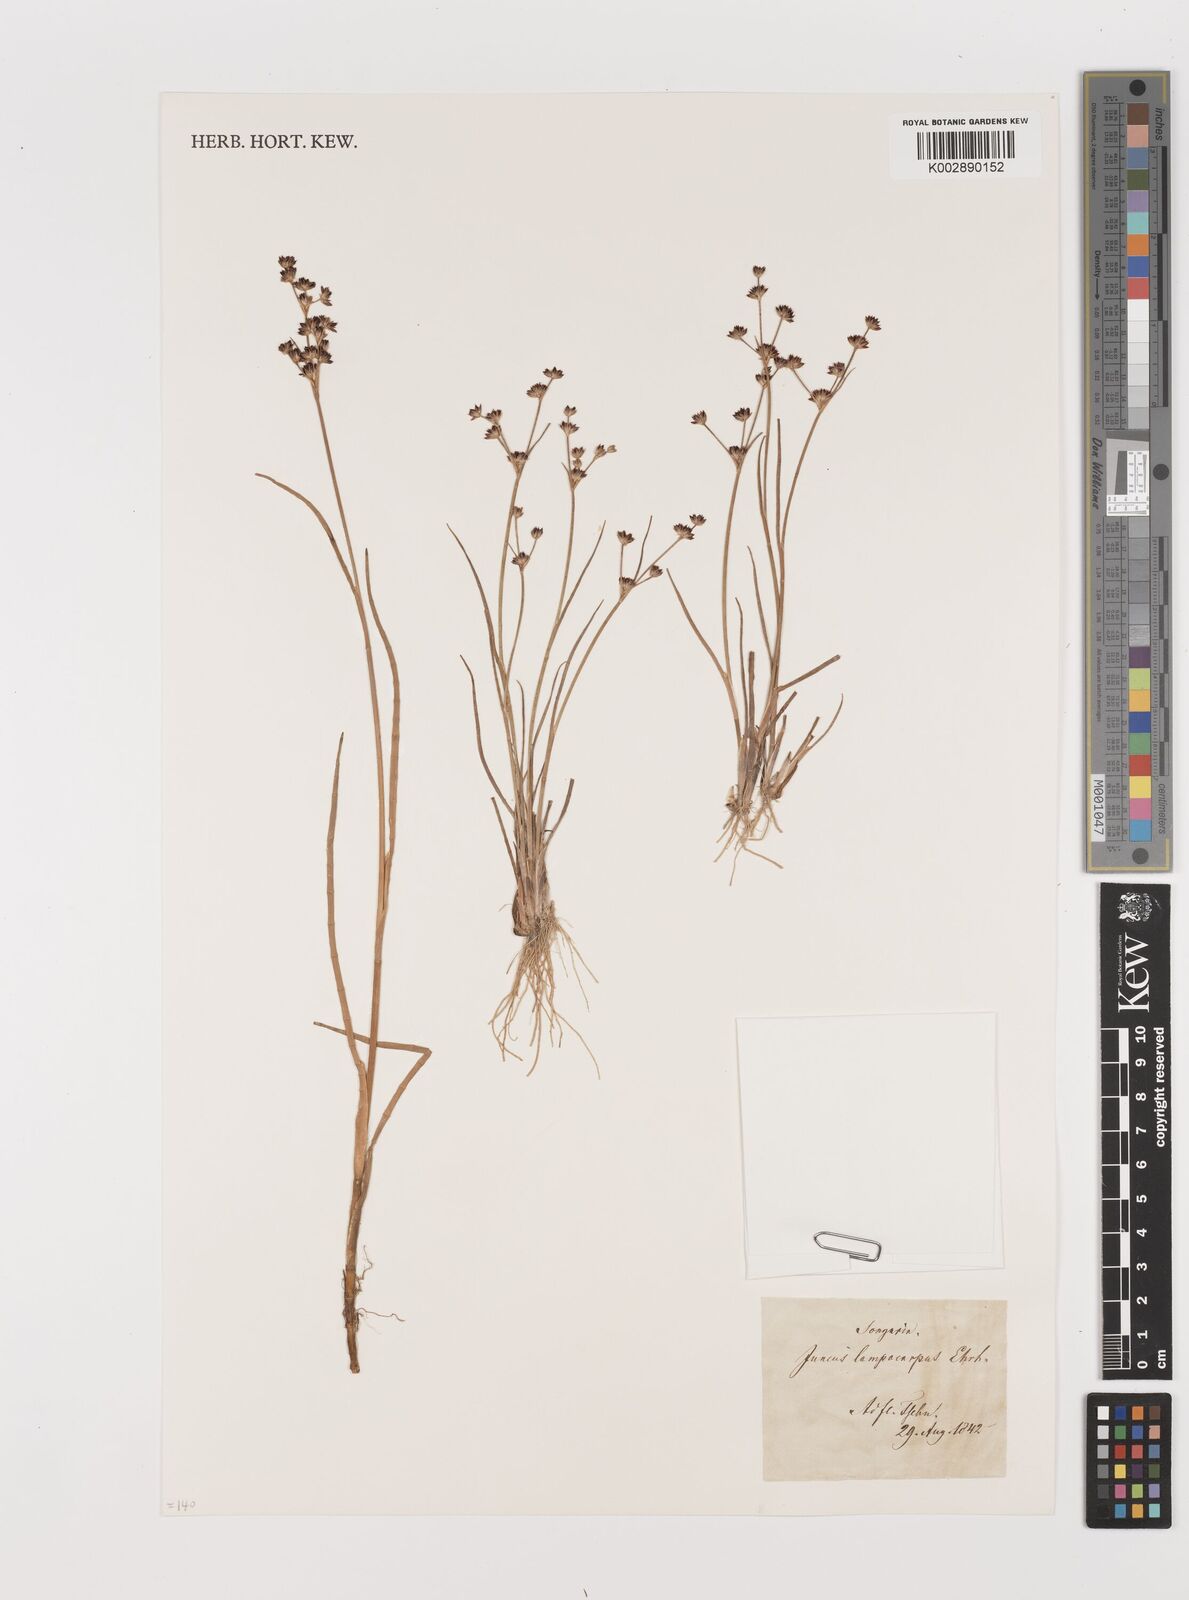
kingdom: Plantae
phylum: Tracheophyta
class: Liliopsida
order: Poales
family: Juncaceae
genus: Juncus
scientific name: Juncus articulatus
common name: Jointed rush
